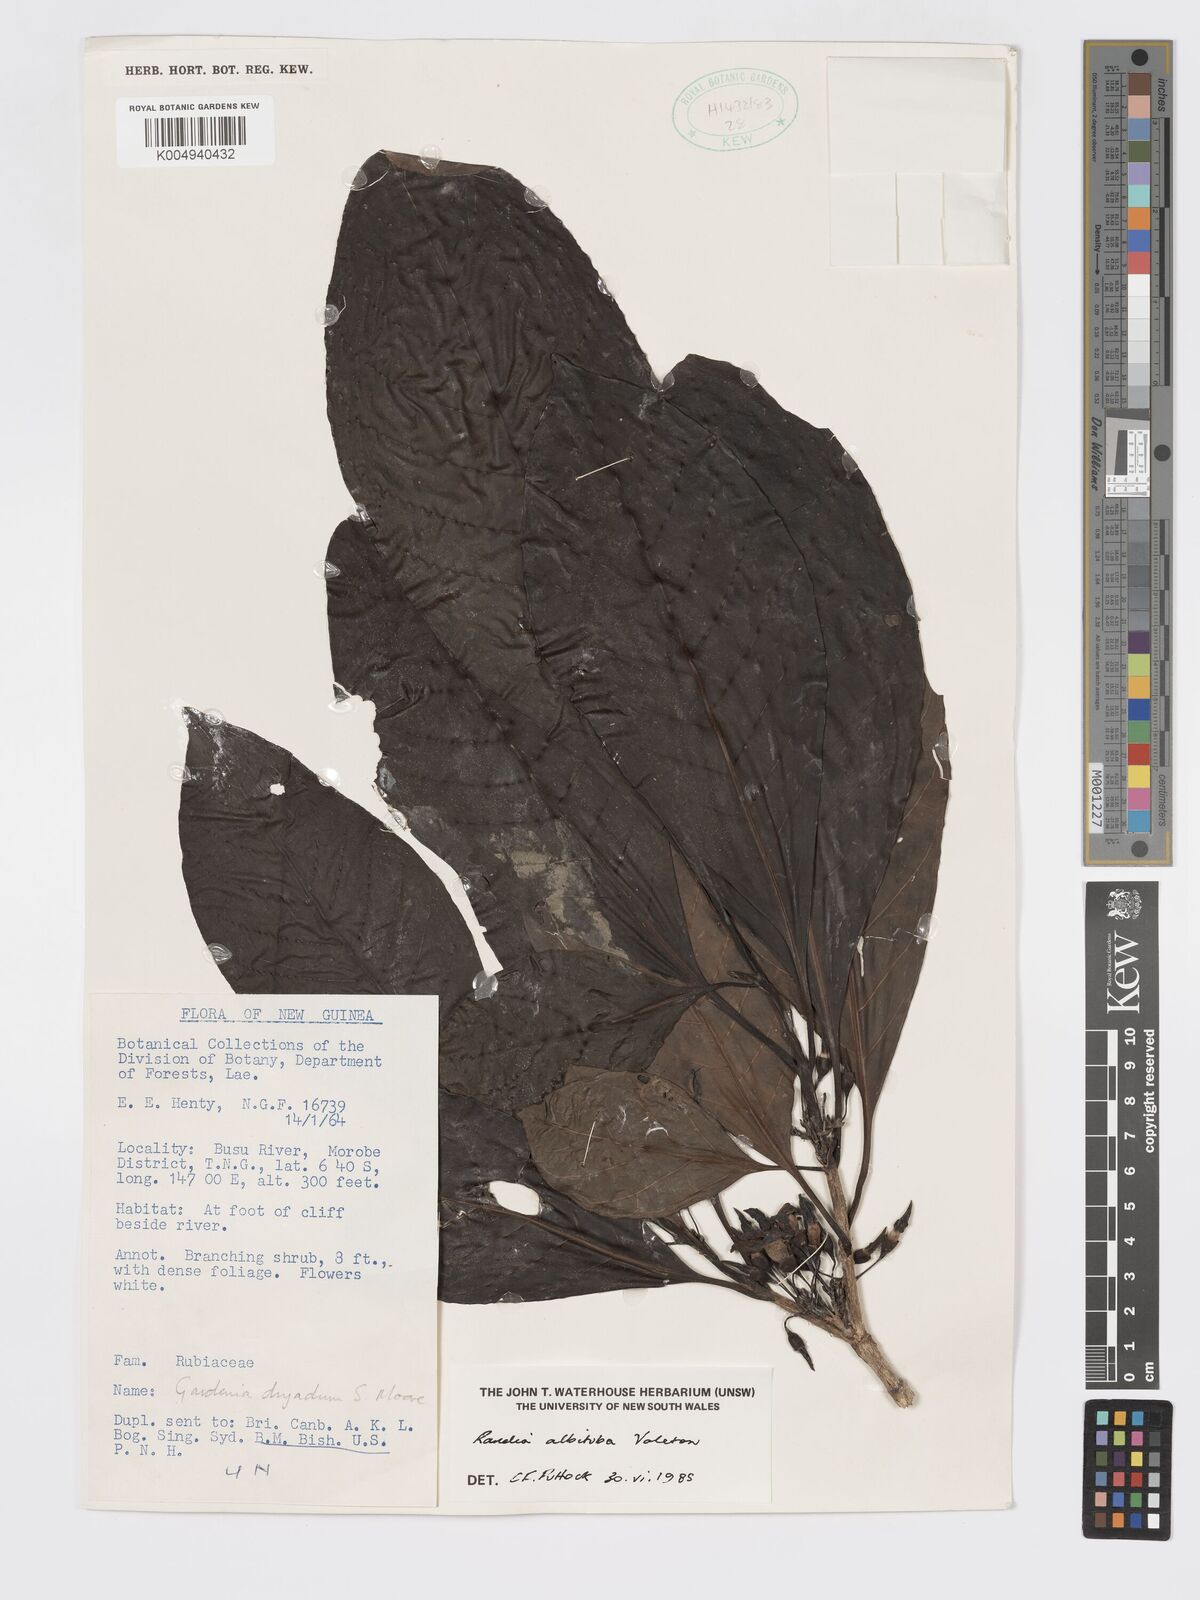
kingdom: Plantae
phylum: Tracheophyta
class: Magnoliopsida
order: Gentianales
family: Rubiaceae
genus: Atractocarpus
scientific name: Atractocarpus macarthurii
